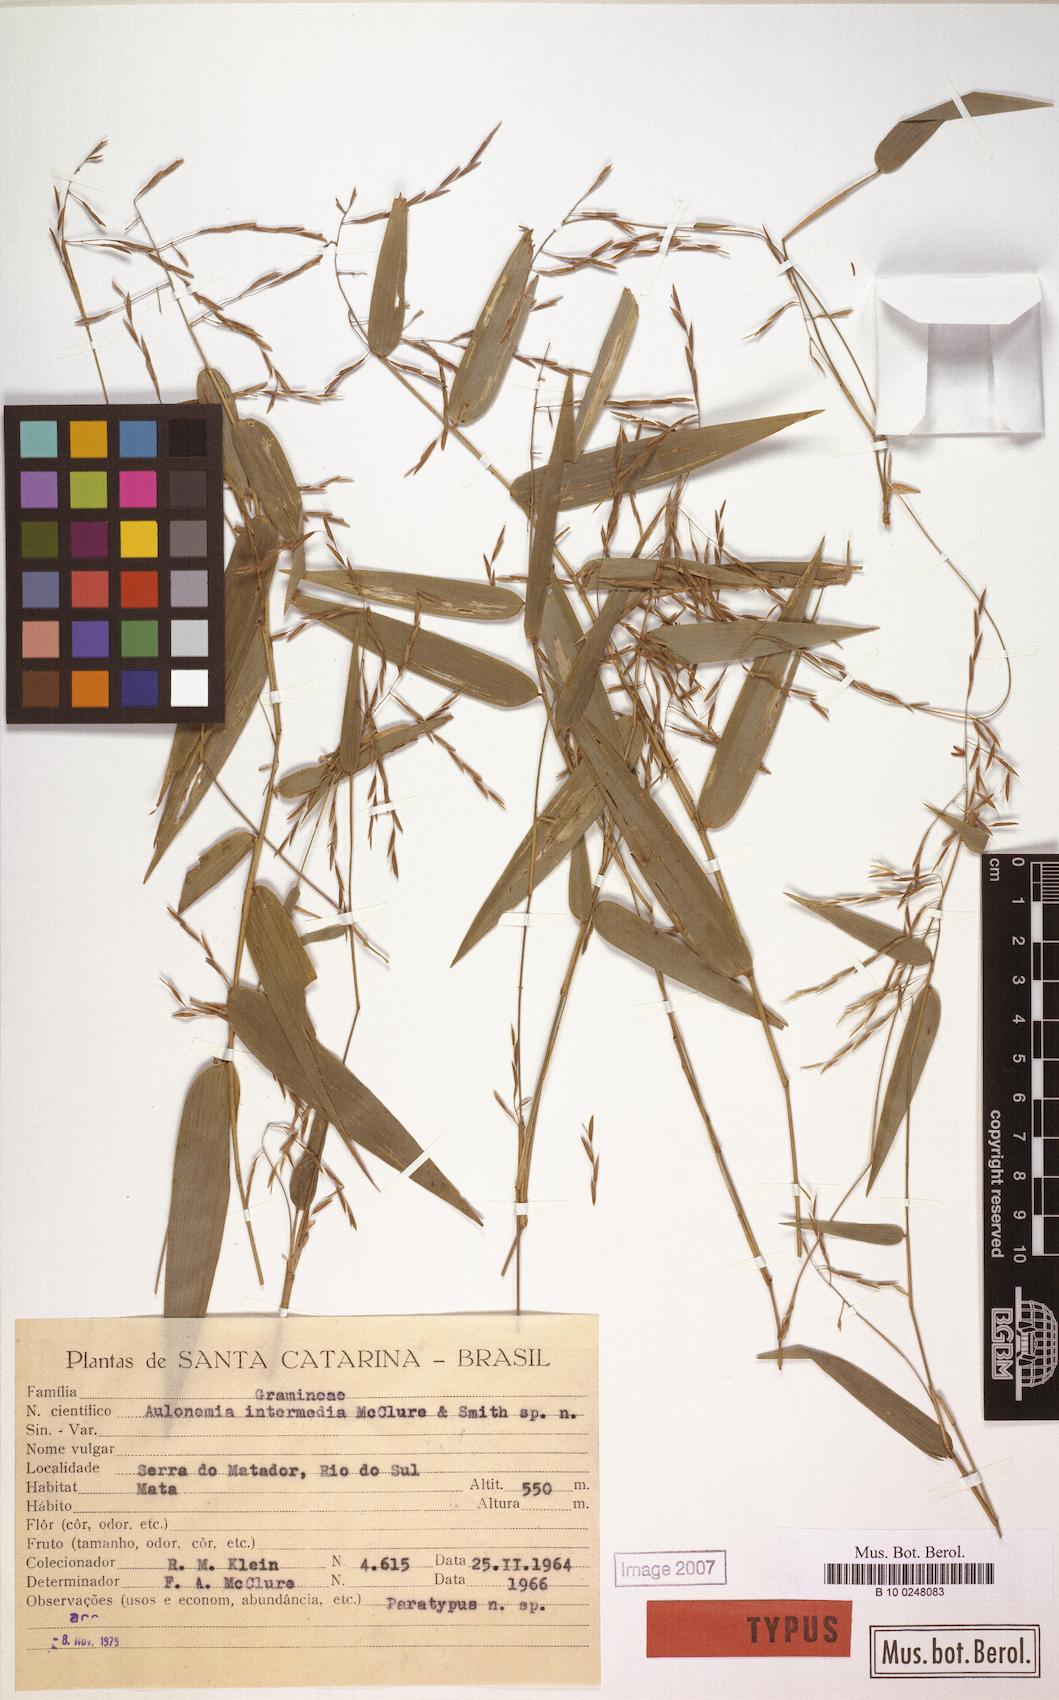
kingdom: Plantae
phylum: Tracheophyta
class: Liliopsida
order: Poales
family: Poaceae
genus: Colanthelia
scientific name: Colanthelia intermedia
